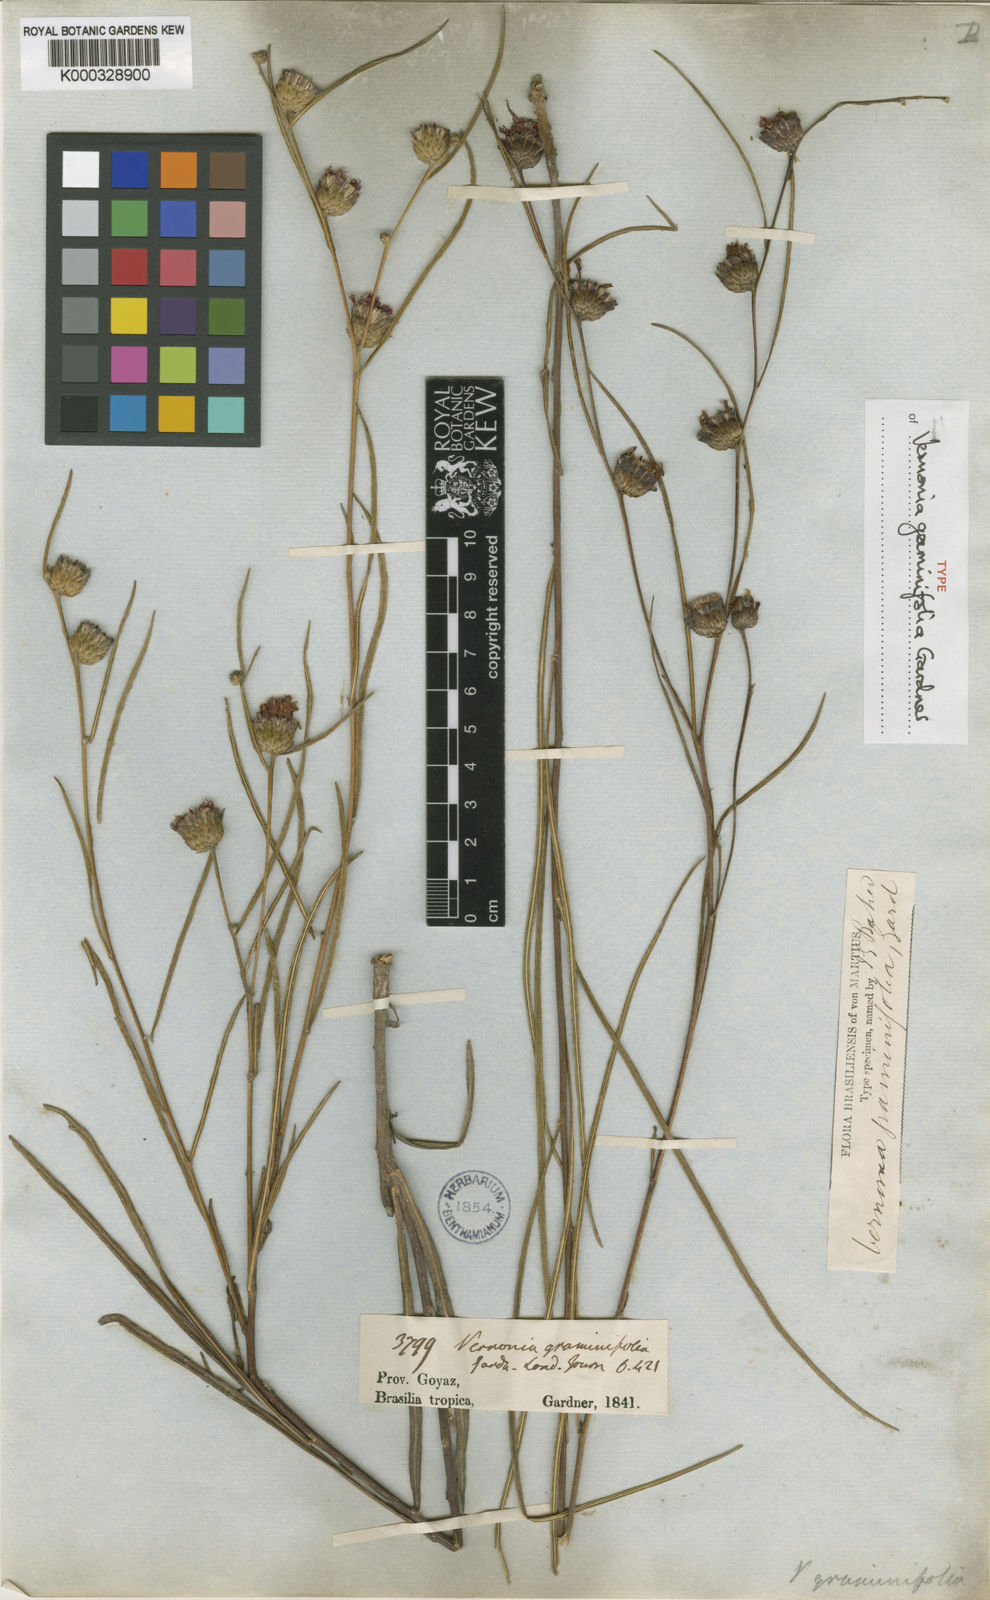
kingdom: Plantae
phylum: Tracheophyta
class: Magnoliopsida
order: Asterales
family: Asteraceae
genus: Lessingianthus
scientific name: Lessingianthus graminifolius
